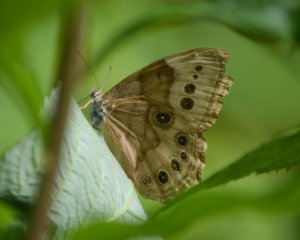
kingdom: Animalia
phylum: Arthropoda
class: Insecta
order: Lepidoptera
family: Nymphalidae
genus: Lethe
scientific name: Lethe anthedon
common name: Northern Pearly-Eye
